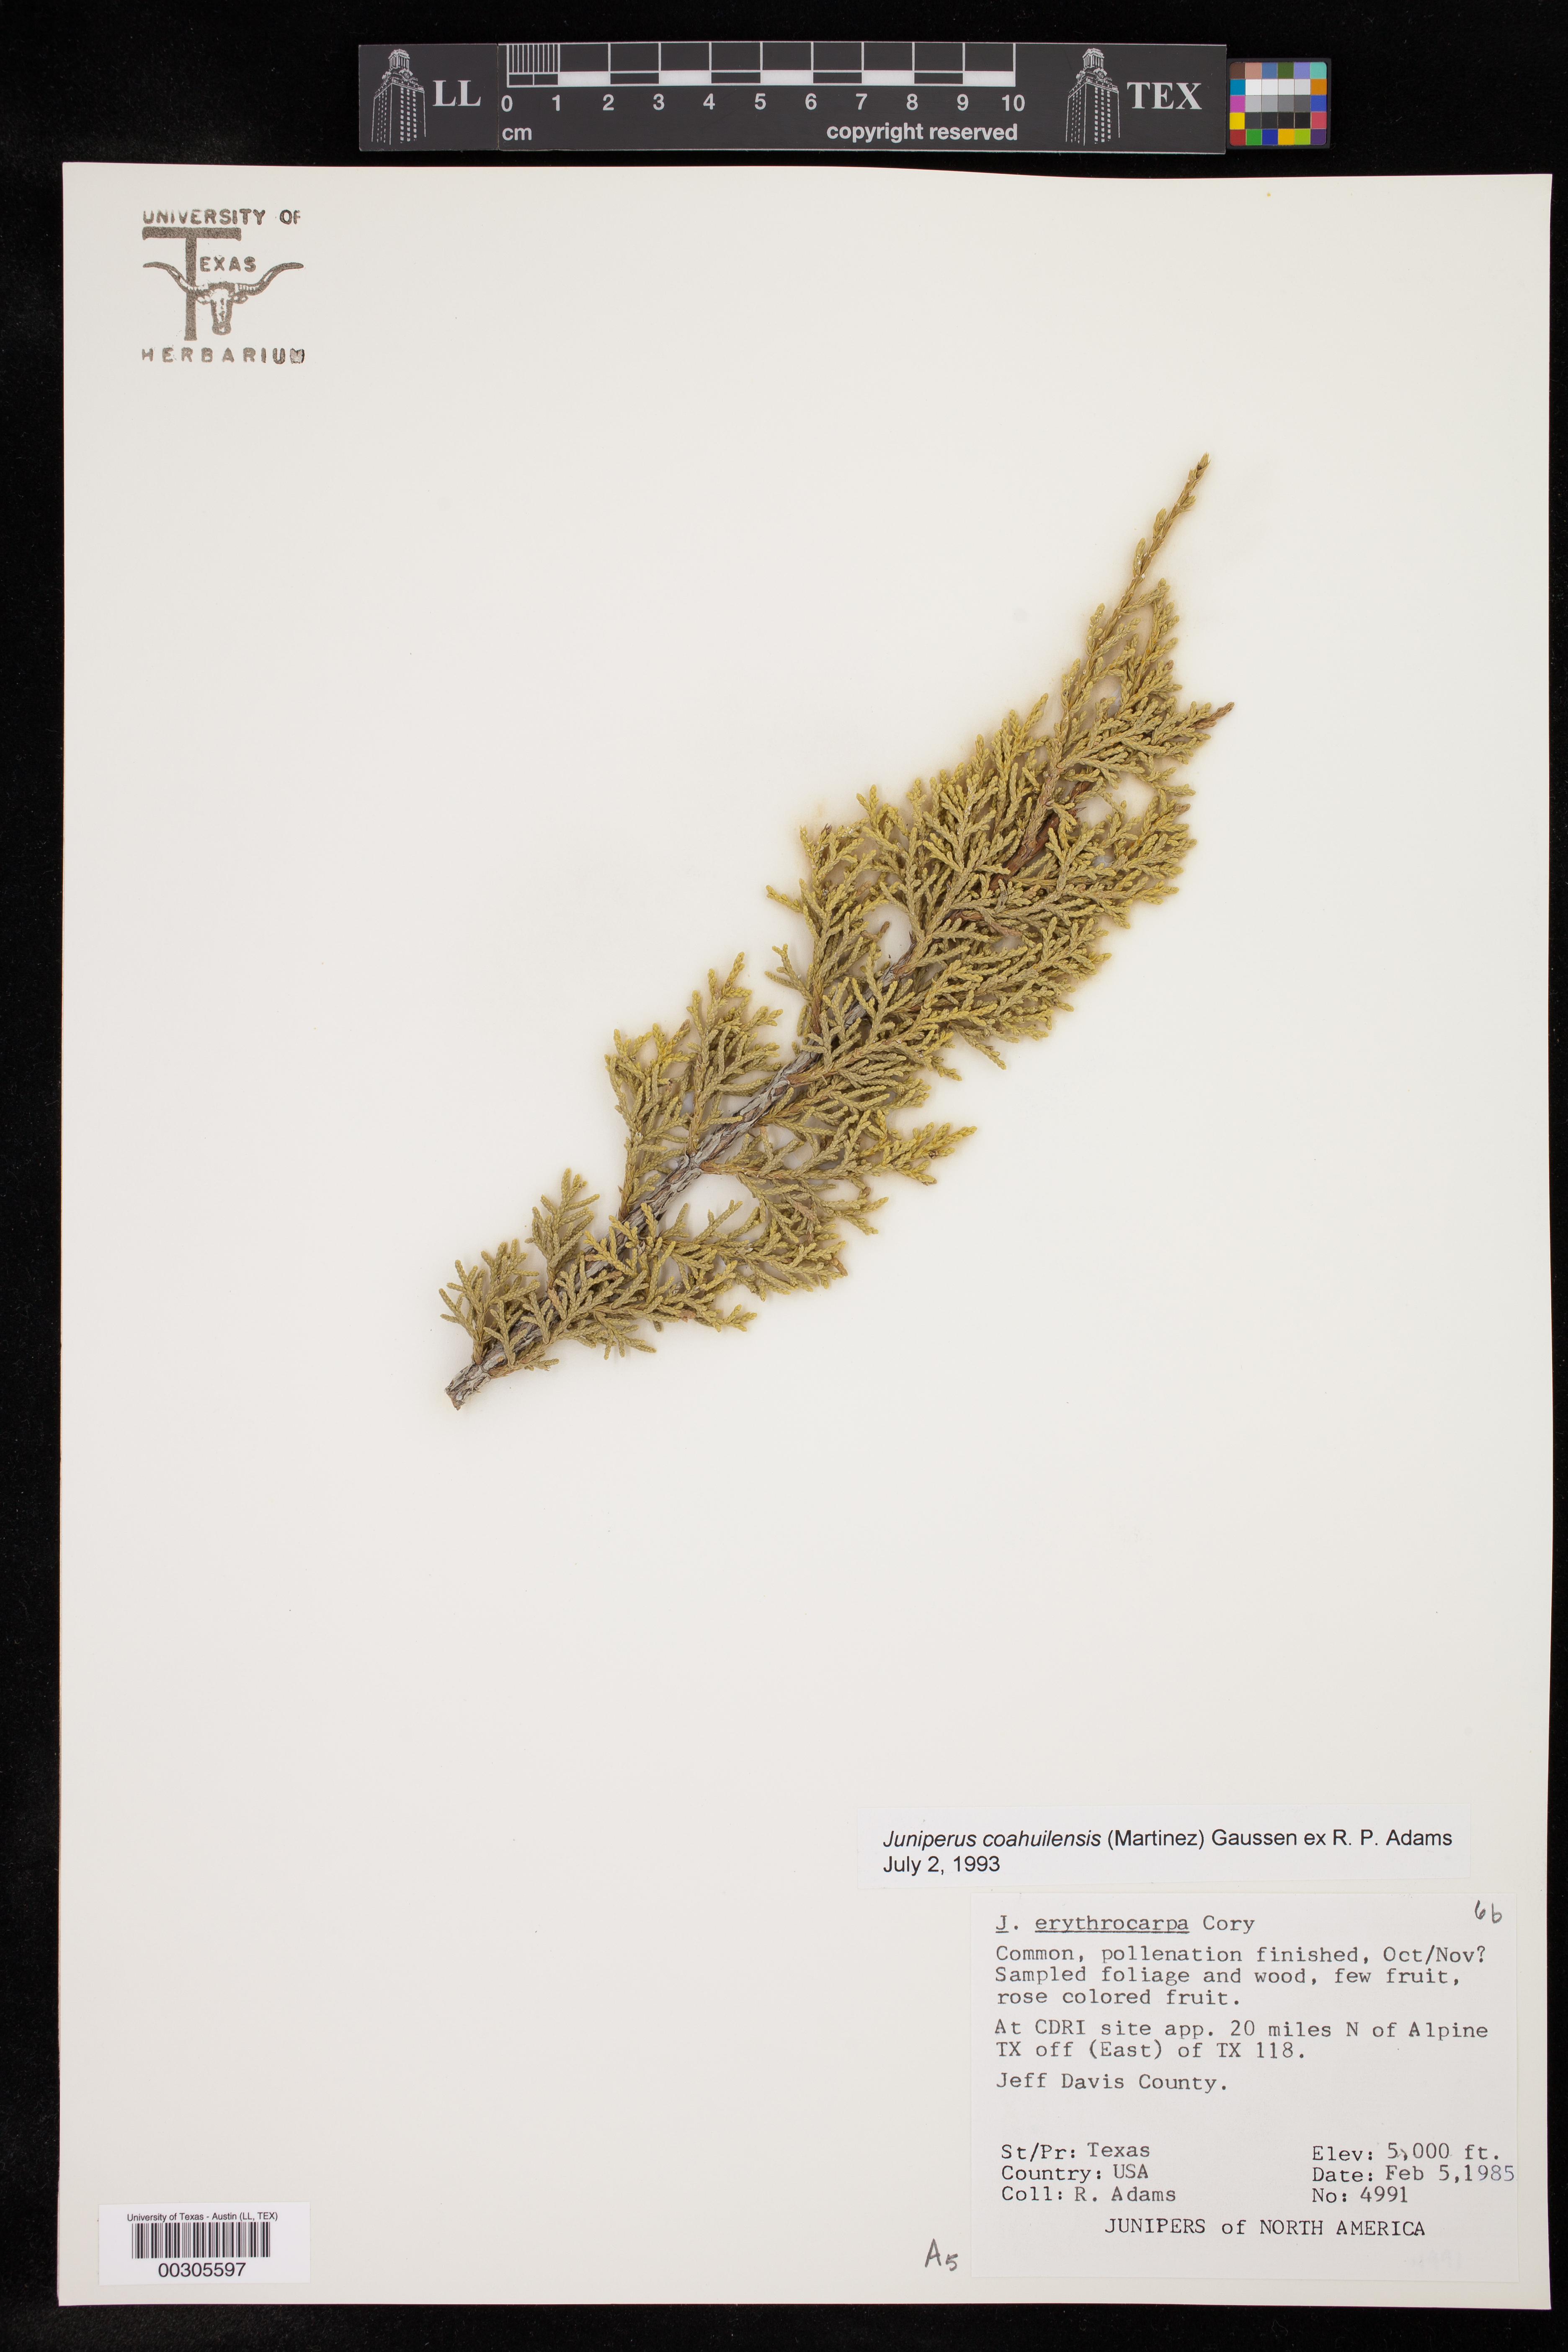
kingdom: Plantae
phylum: Tracheophyta
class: Pinopsida
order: Pinales
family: Cupressaceae
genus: Juniperus
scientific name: Juniperus coahuilensis
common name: Roseberry
